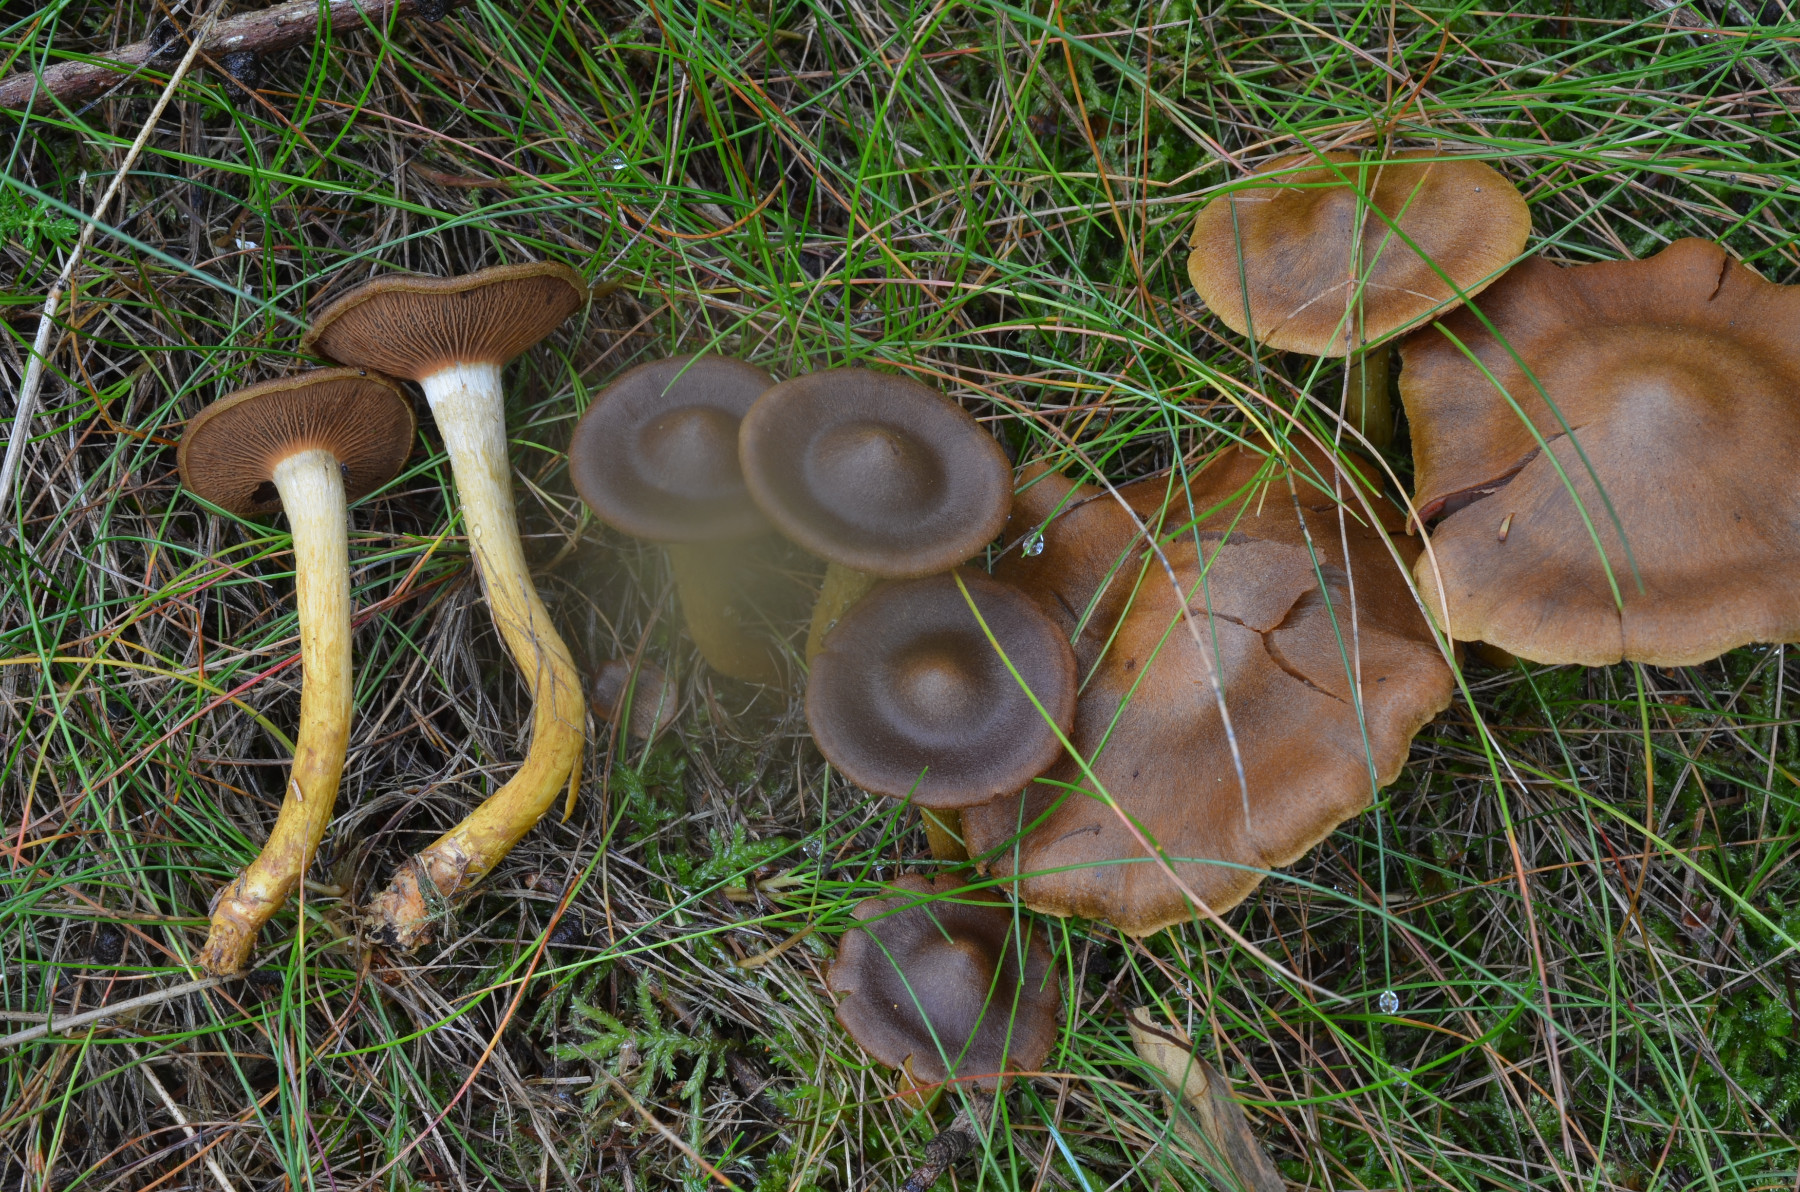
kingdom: Fungi
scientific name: Fungi
